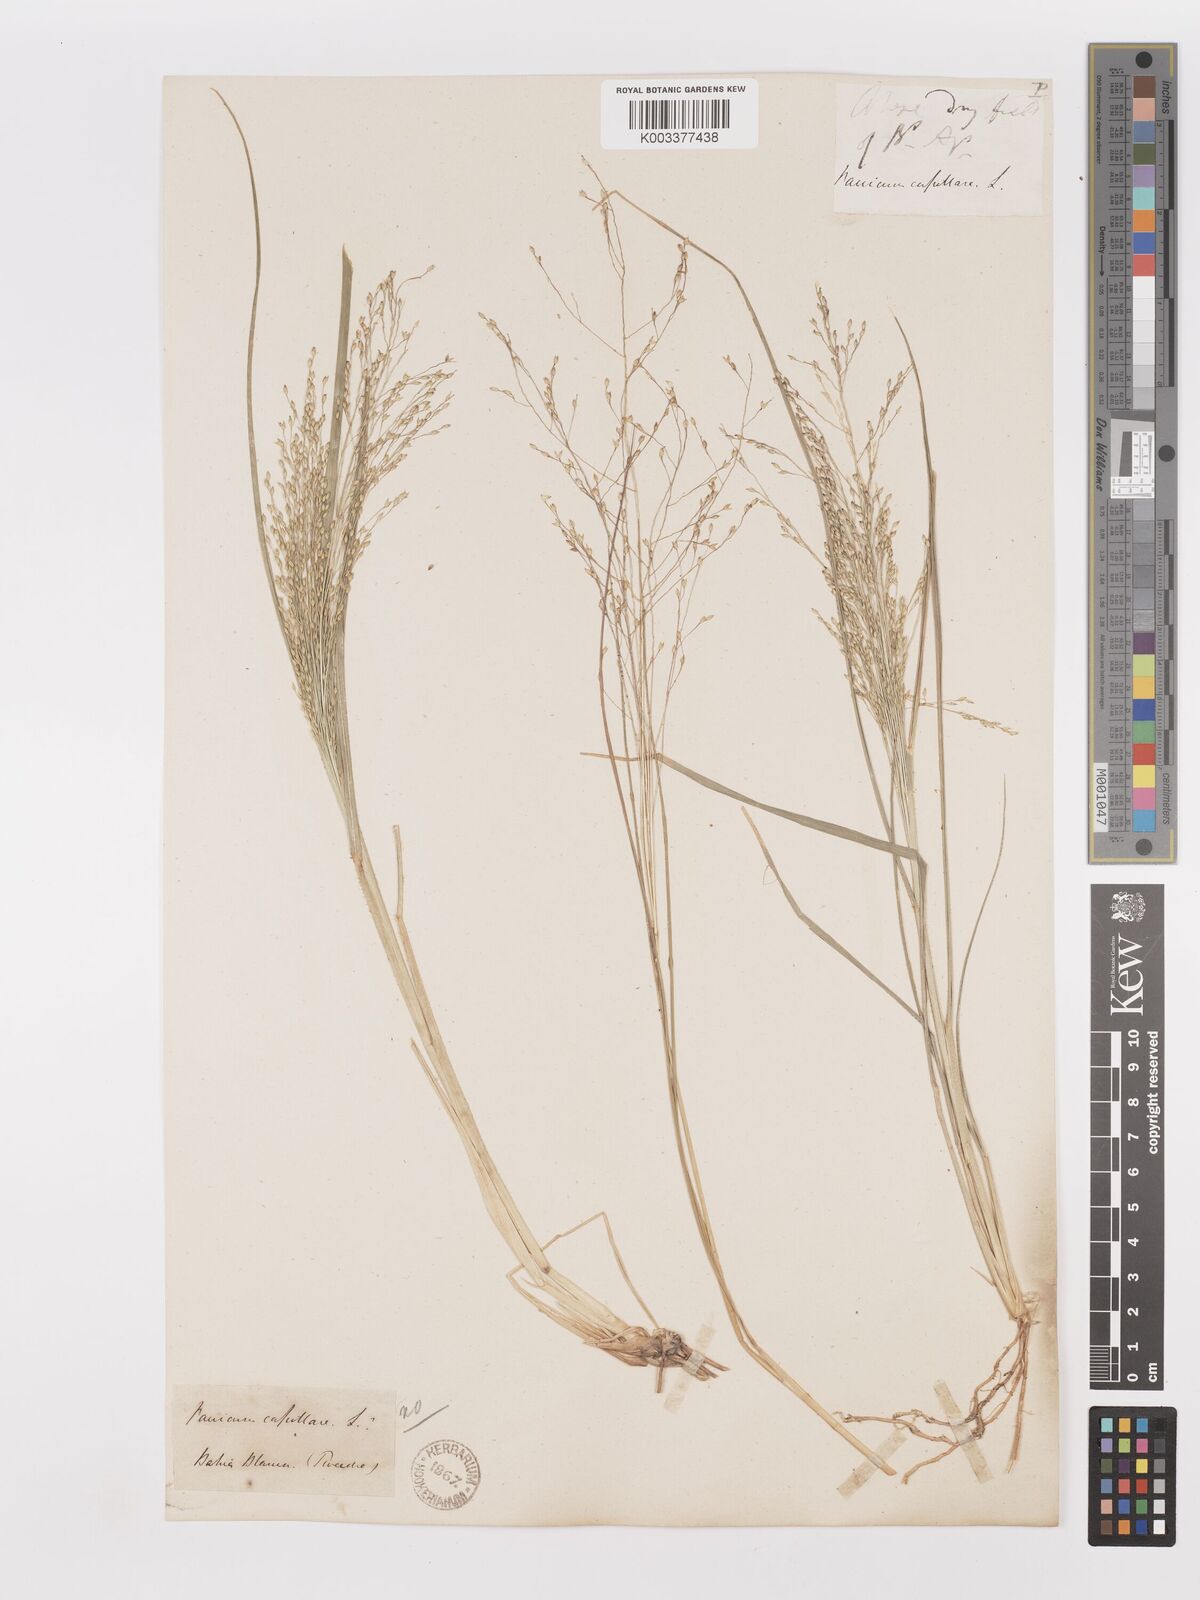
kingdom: Plantae
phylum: Tracheophyta
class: Liliopsida
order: Poales
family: Poaceae
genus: Panicum
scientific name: Panicum bergii
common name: Berg's panicgrass
